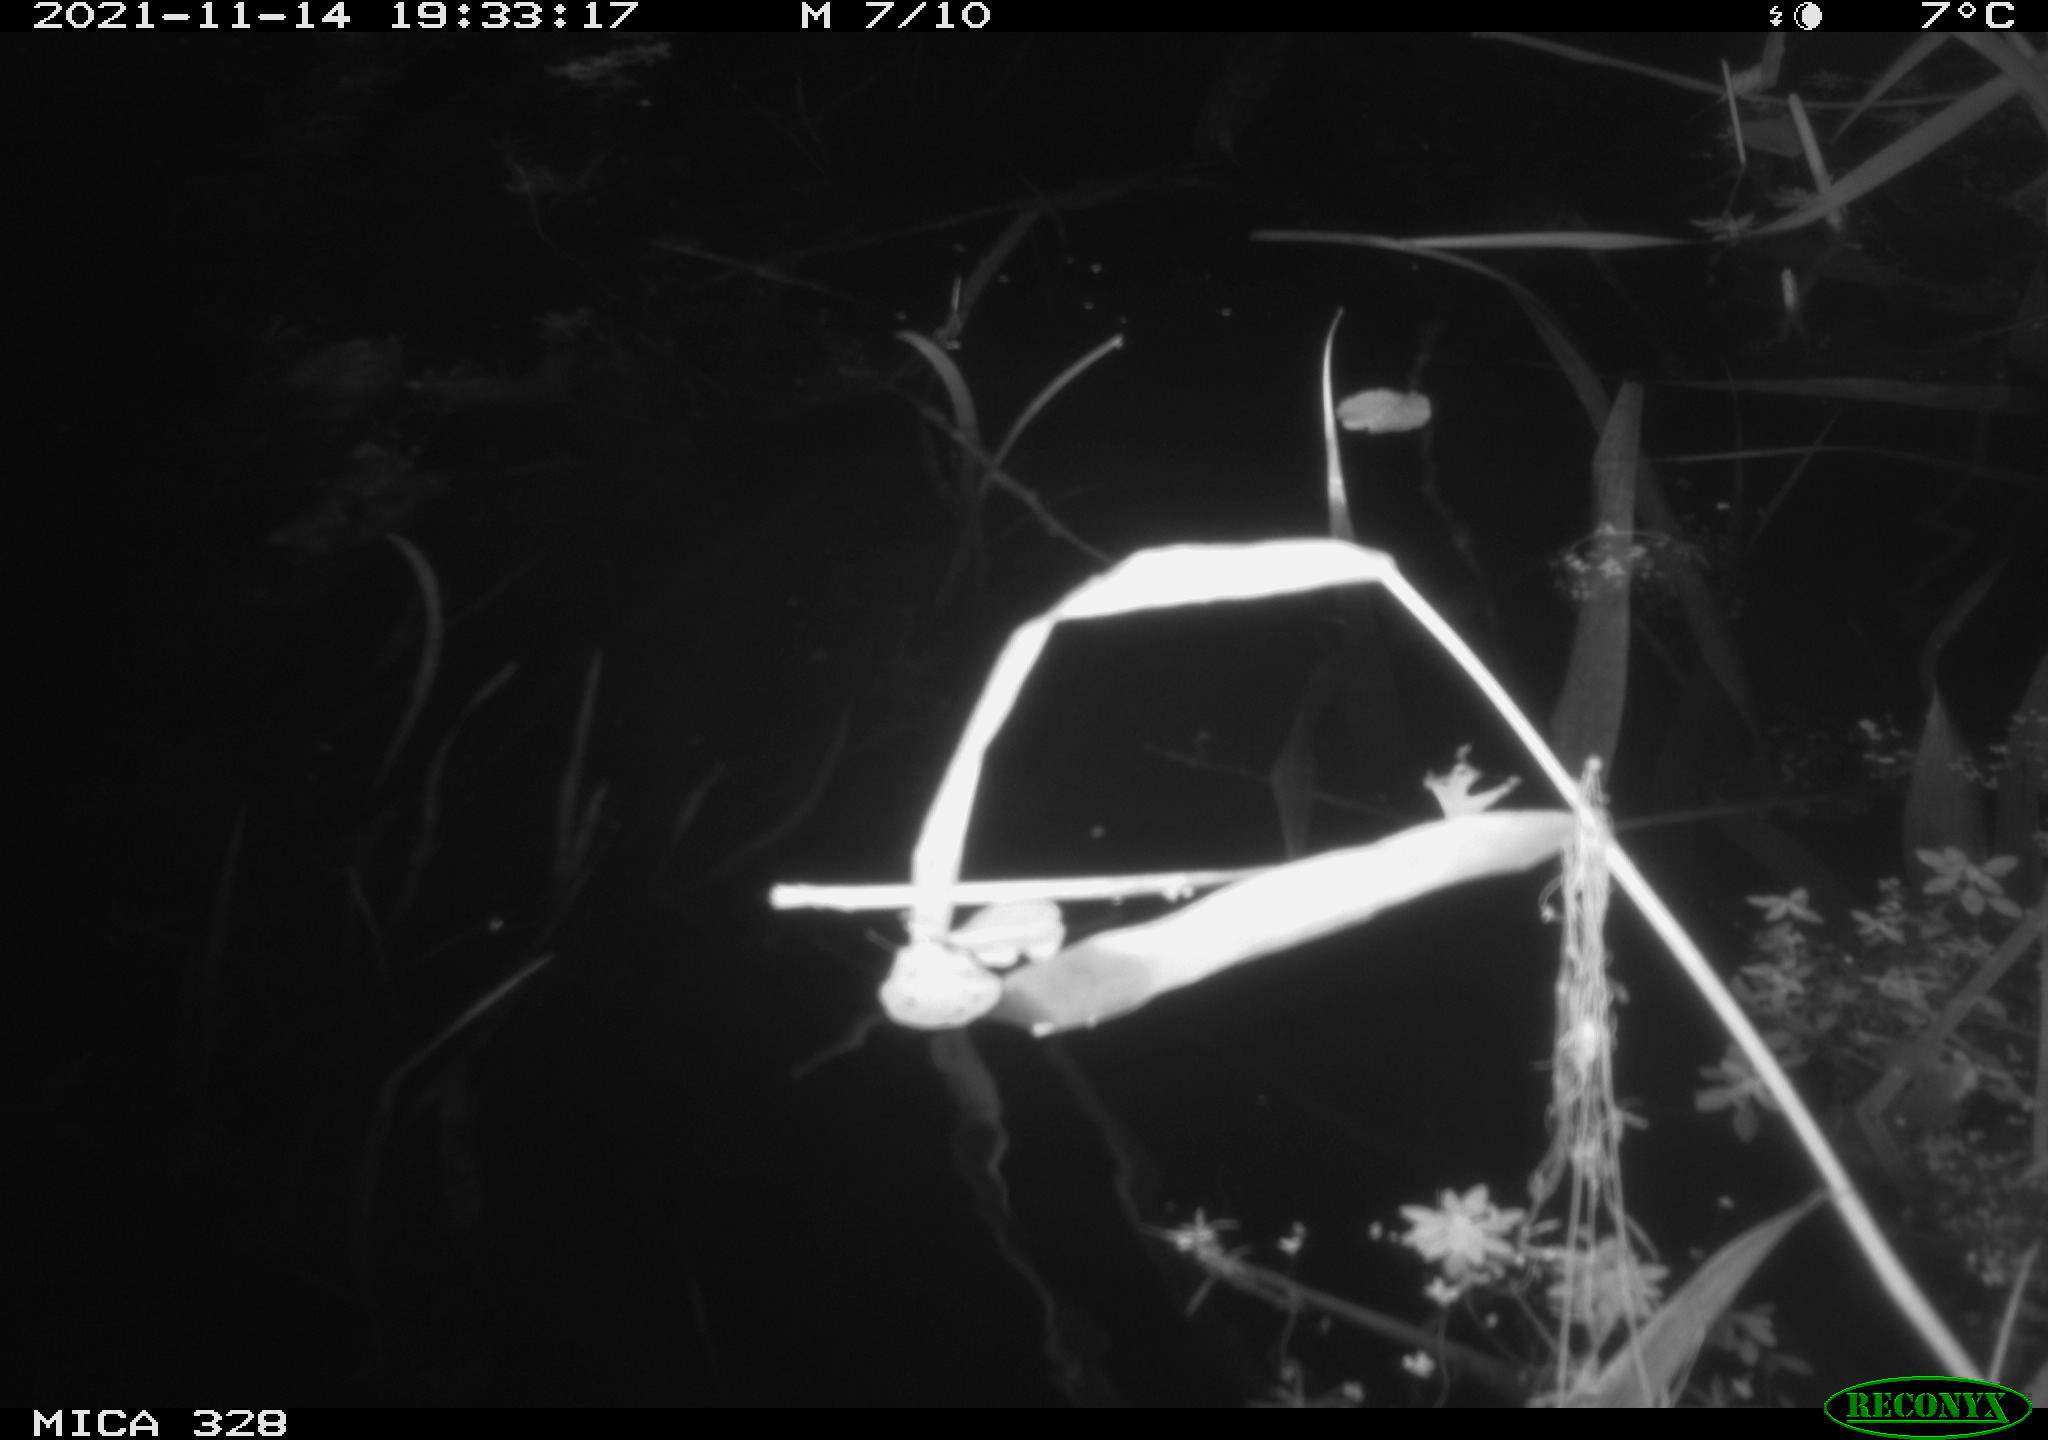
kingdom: Animalia
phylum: Chordata
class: Mammalia
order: Rodentia
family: Cricetidae
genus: Ondatra
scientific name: Ondatra zibethicus
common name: Muskrat
